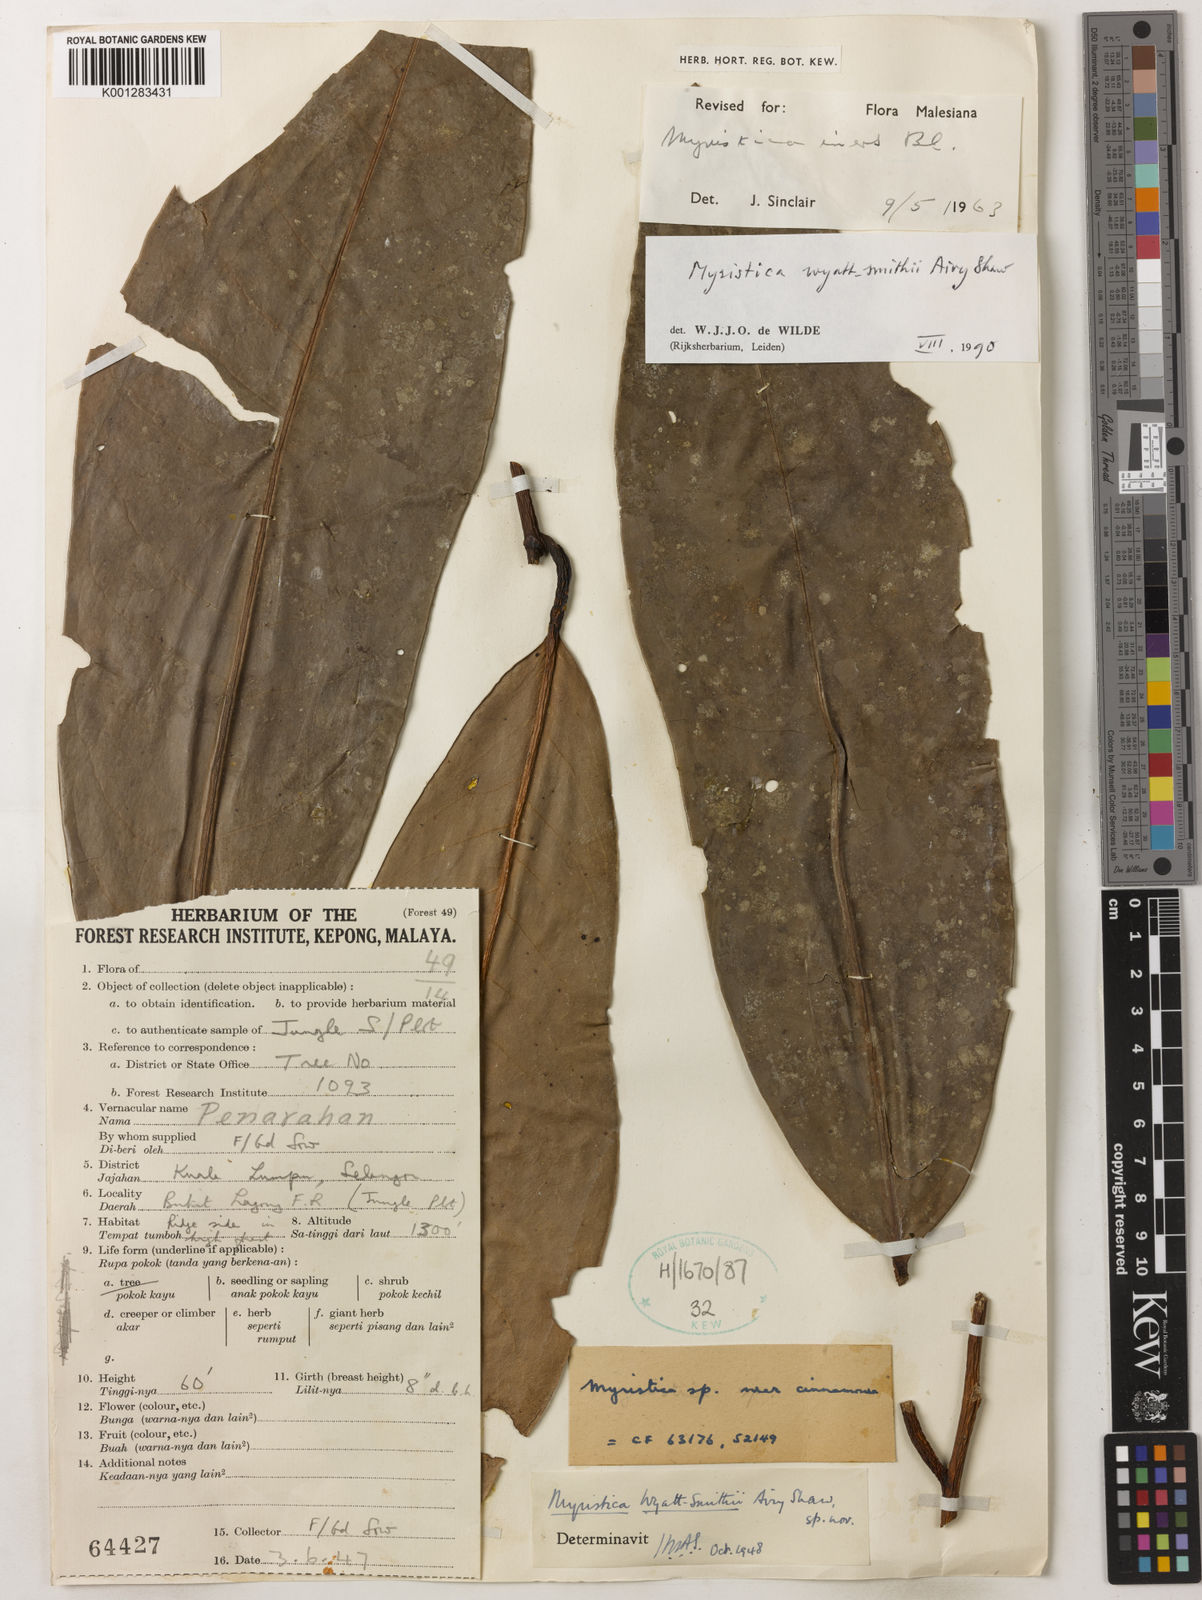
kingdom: Plantae
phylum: Tracheophyta
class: Magnoliopsida
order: Magnoliales
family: Myristicaceae
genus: Myristica
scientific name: Myristica wyatt-smithii
